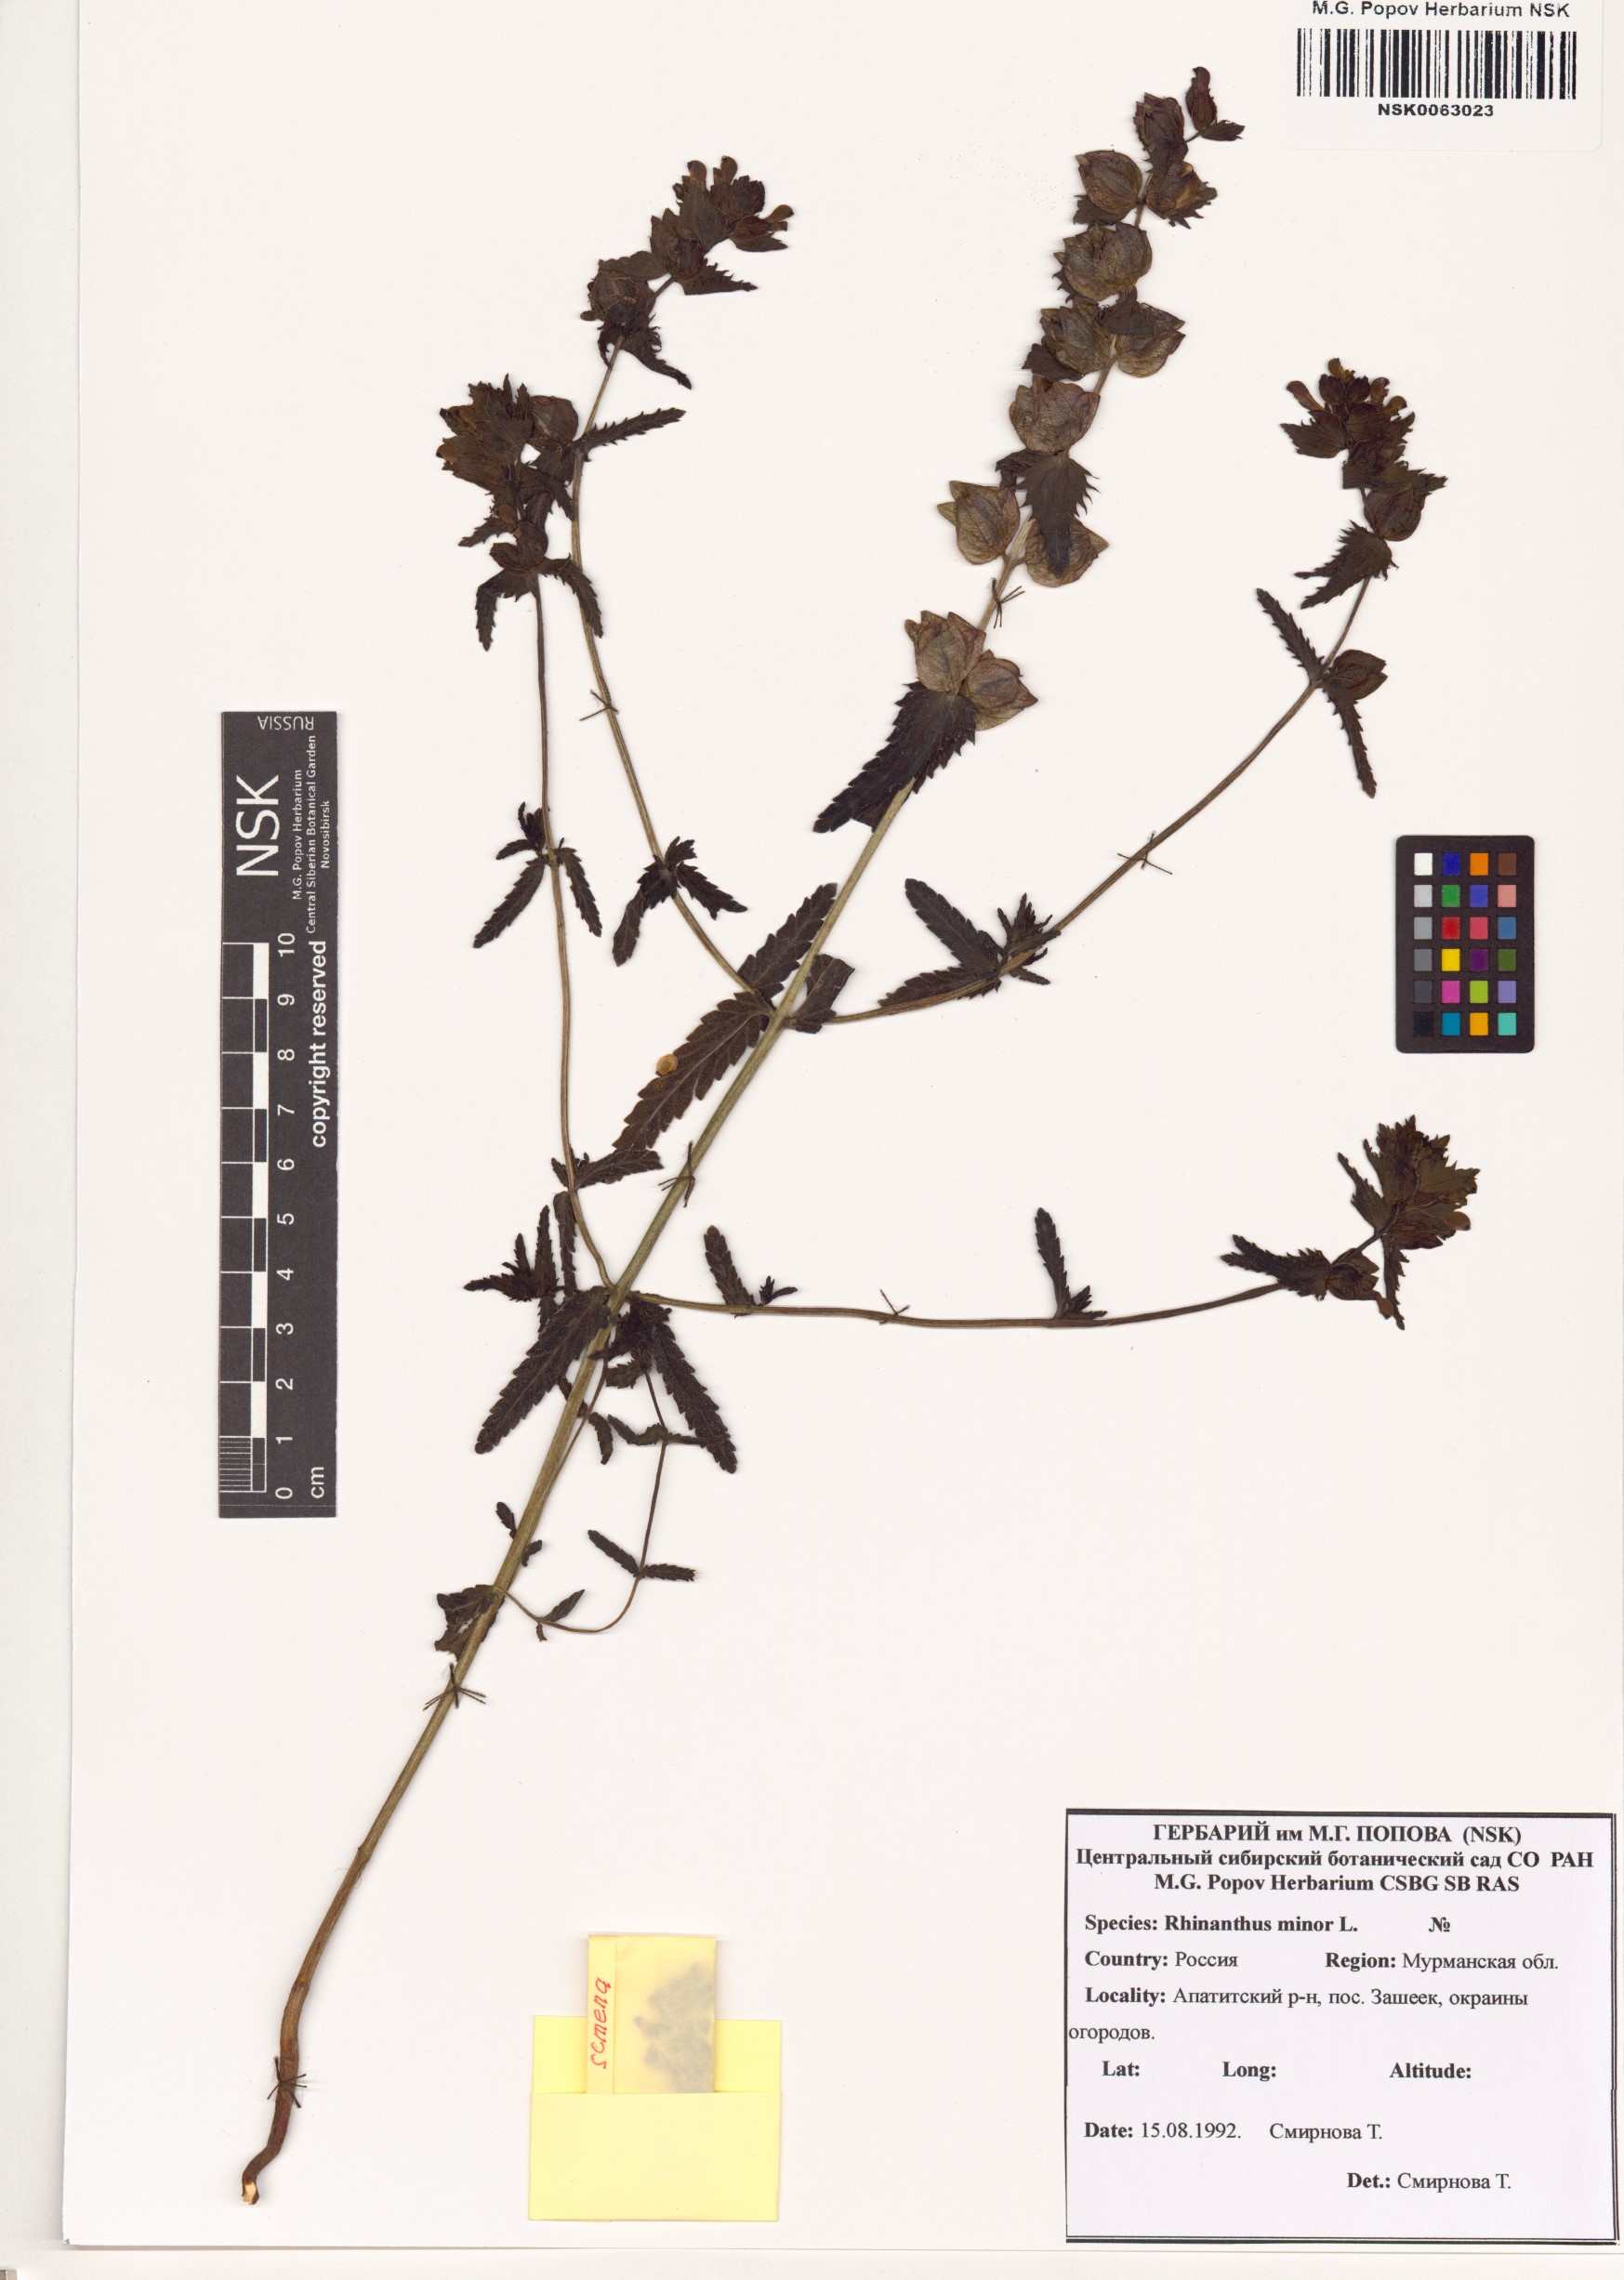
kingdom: Plantae
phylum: Tracheophyta
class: Magnoliopsida
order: Lamiales
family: Orobanchaceae
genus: Rhinanthus
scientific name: Rhinanthus minor
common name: Yellow-rattle
